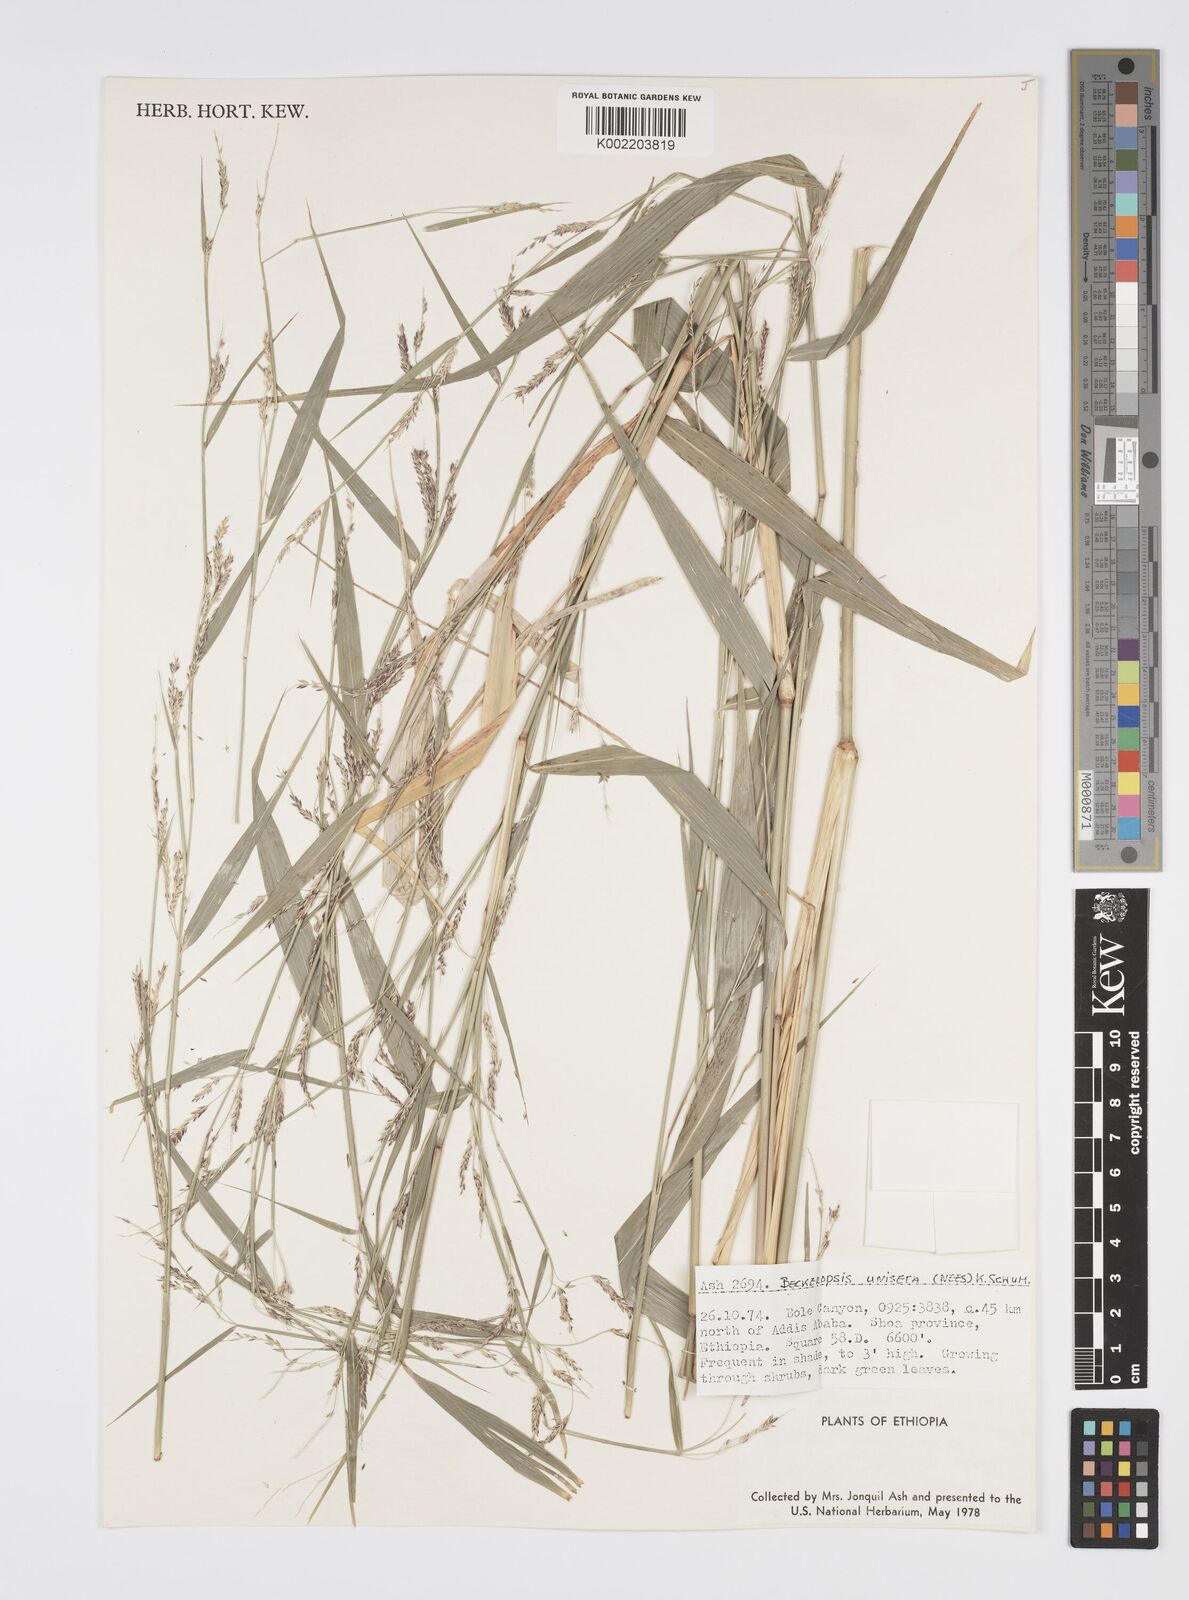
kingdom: Plantae
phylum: Tracheophyta
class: Liliopsida
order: Poales
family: Poaceae
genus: Cenchrus
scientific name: Cenchrus unisetus
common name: Natal grass
